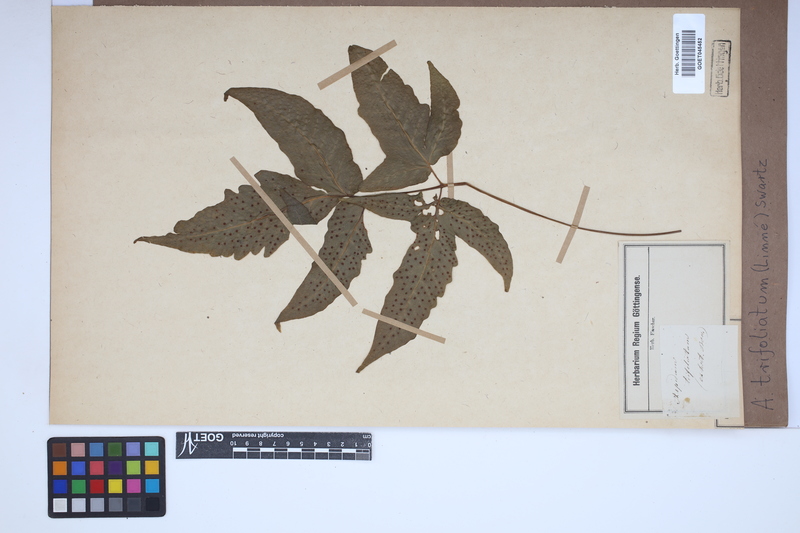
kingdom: Plantae
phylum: Tracheophyta
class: Polypodiopsida
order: Polypodiales
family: Tectariaceae
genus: Tectaria
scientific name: Tectaria trifoliata
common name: Threeleaf halberd fern
